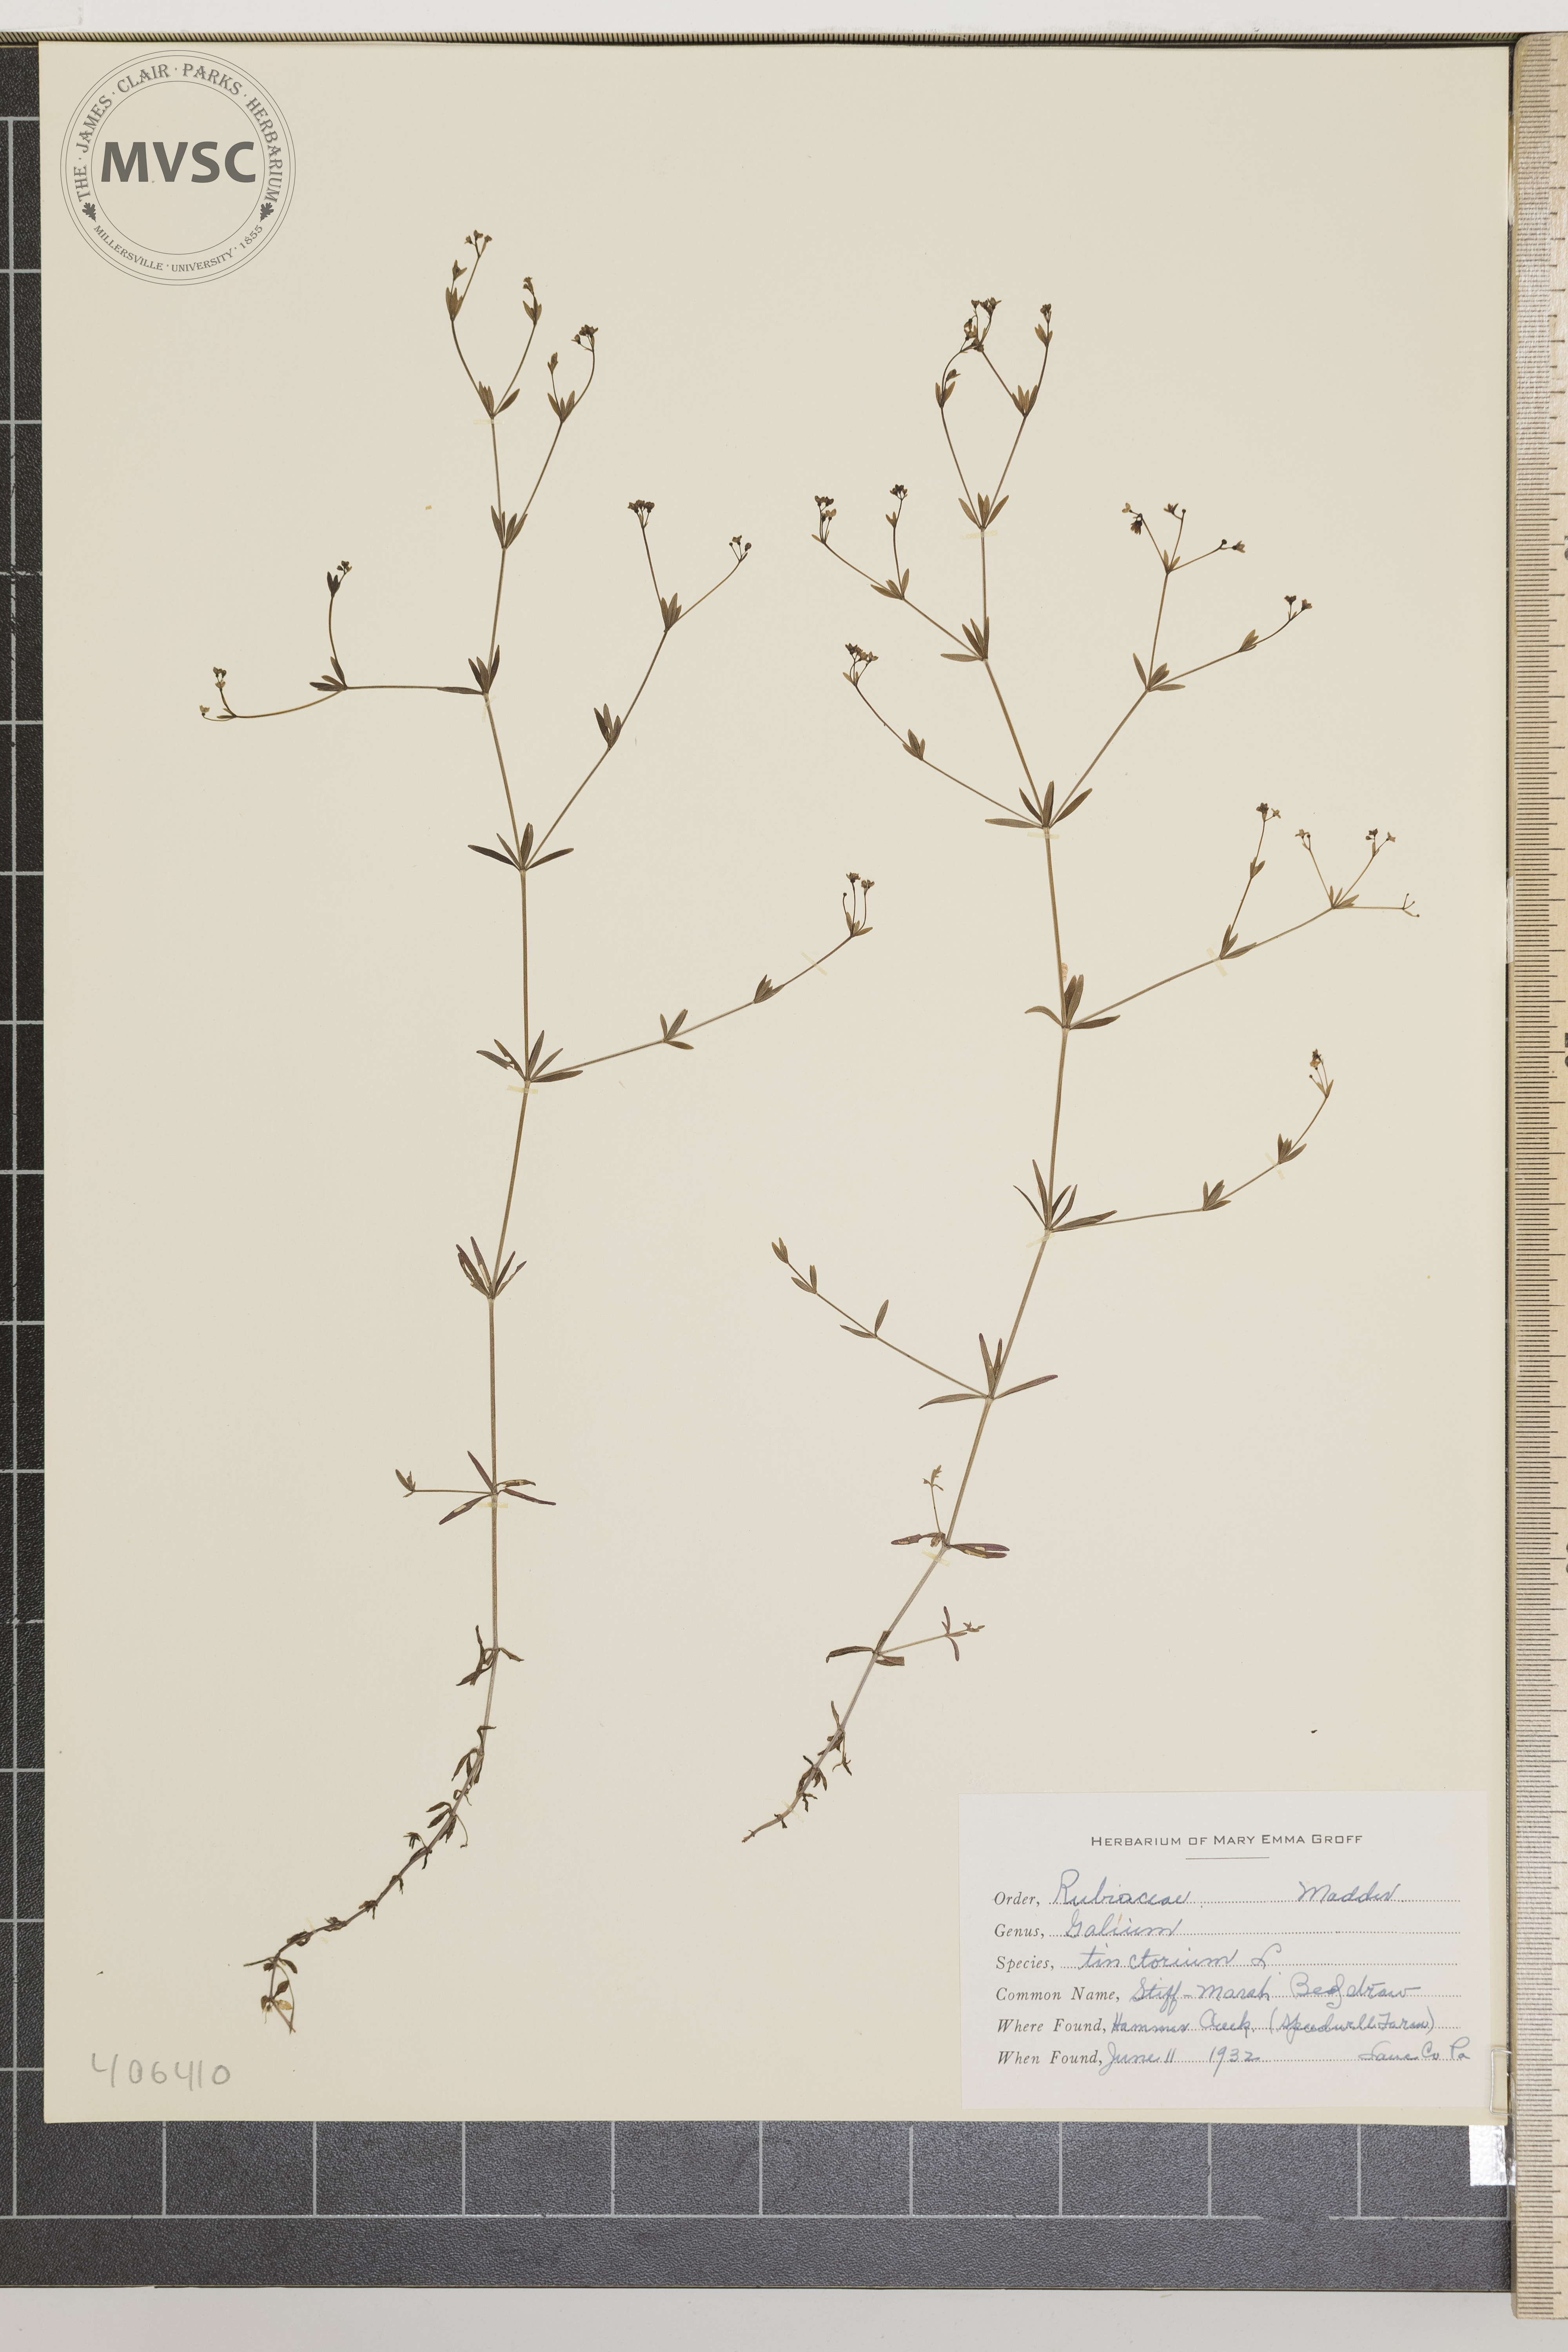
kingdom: Plantae
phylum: Tracheophyta
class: Magnoliopsida
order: Gentianales
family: Rubiaceae
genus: Galium
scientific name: Galium obtusum
